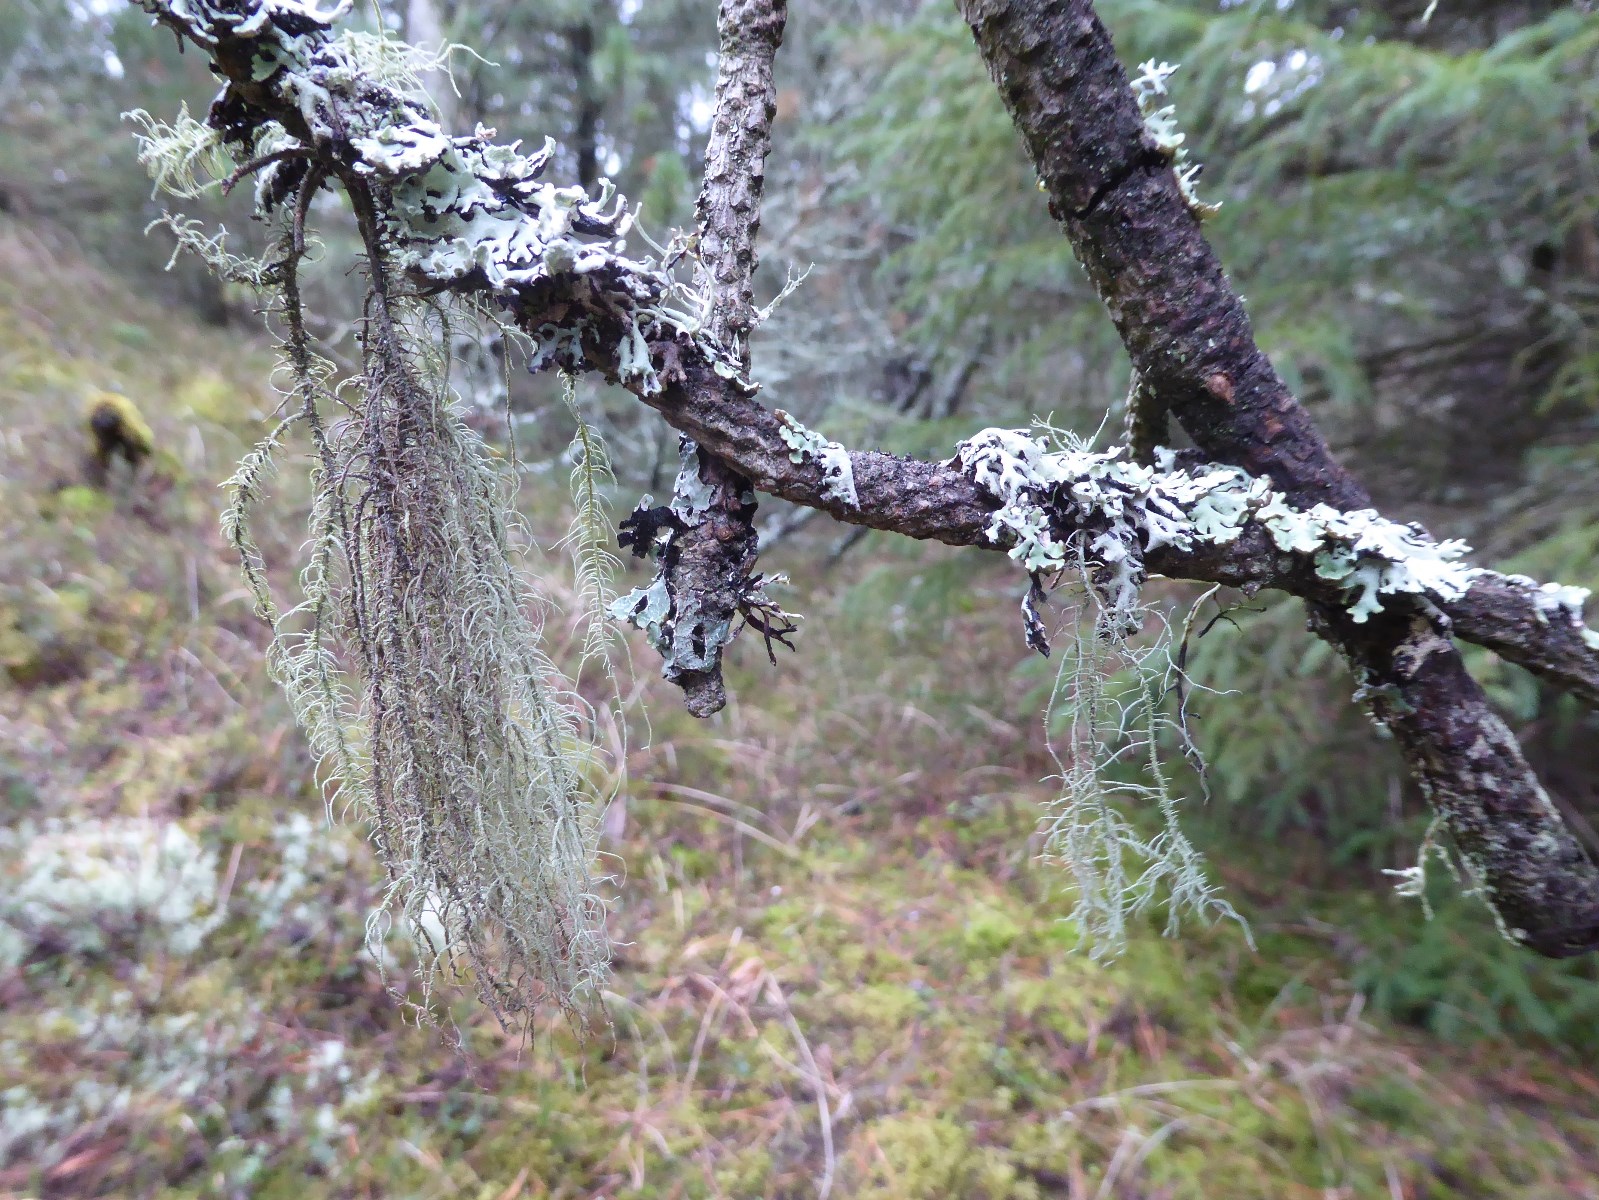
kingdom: Fungi
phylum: Ascomycota
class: Lecanoromycetes
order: Lecanorales
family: Parmeliaceae
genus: Usnea
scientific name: Usnea dasypoga
